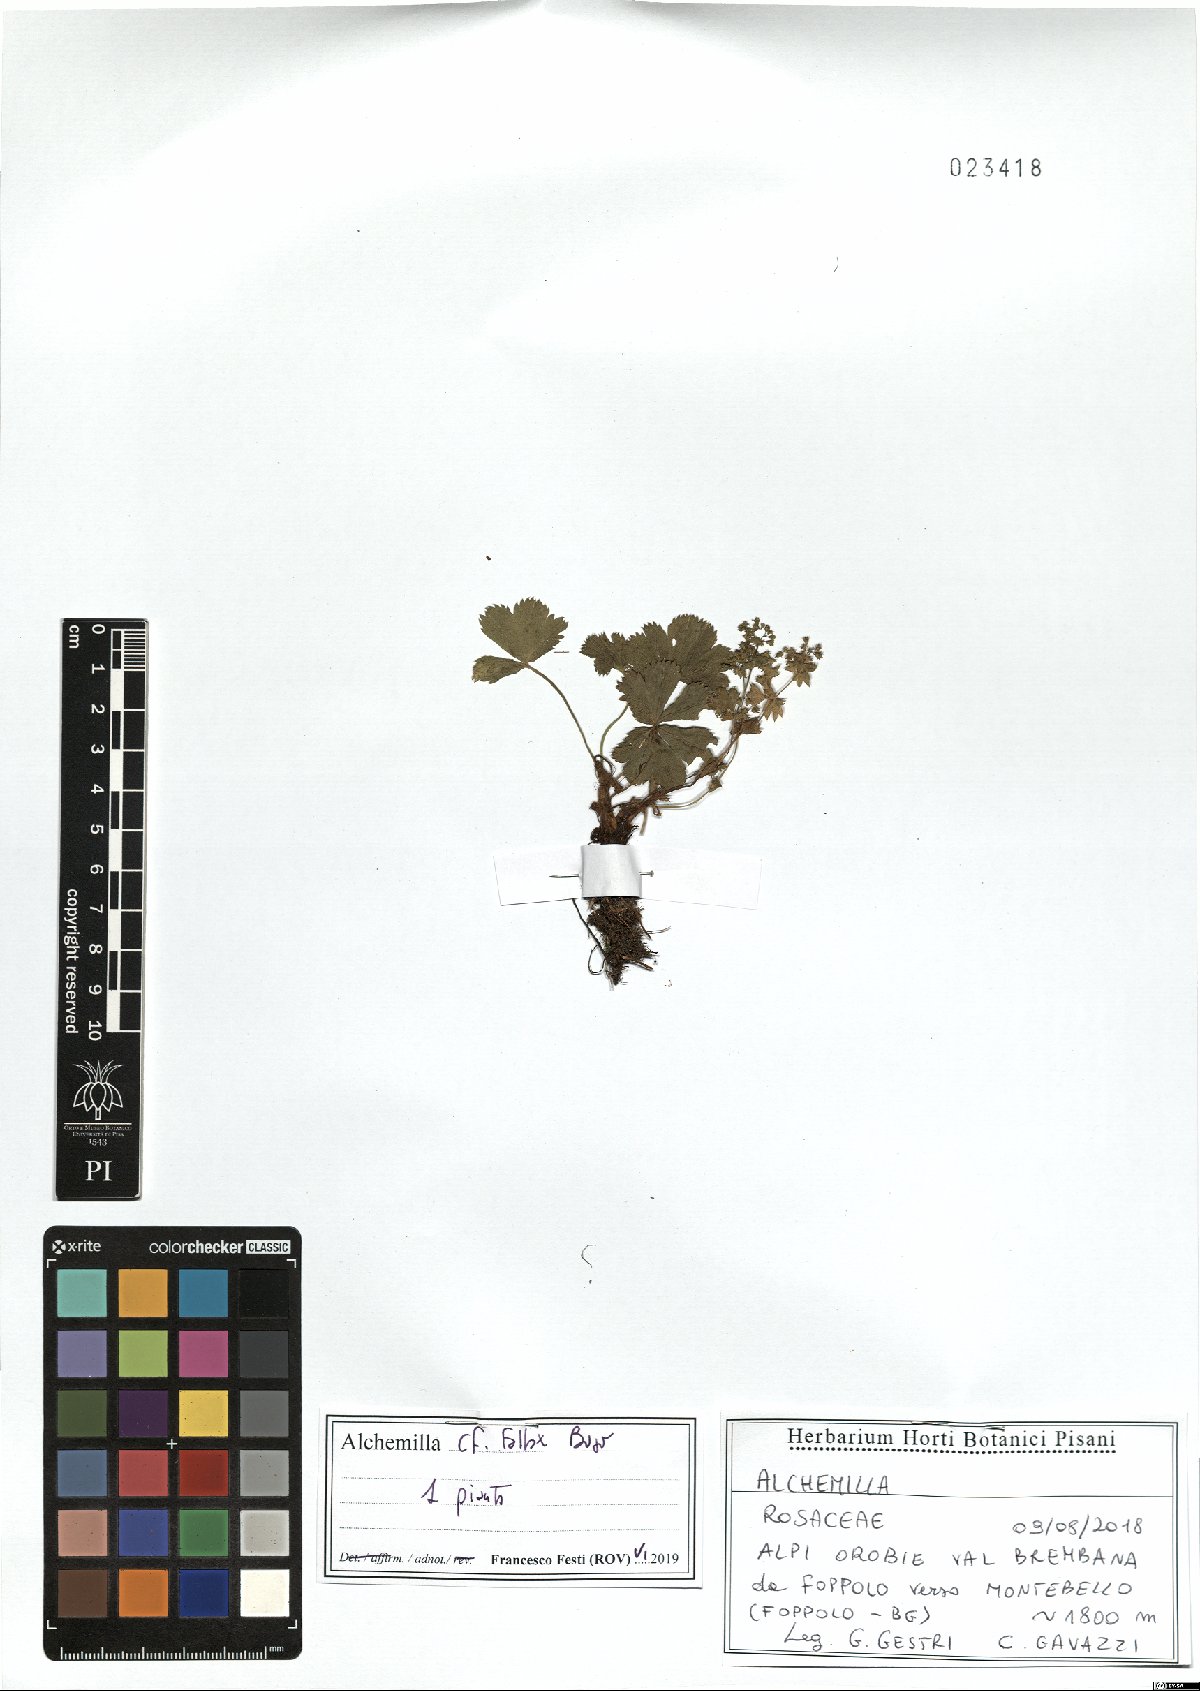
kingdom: Plantae
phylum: Tracheophyta
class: Magnoliopsida
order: Rosales
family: Rosaceae
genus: Alchemilla
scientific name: Alchemilla fallax
